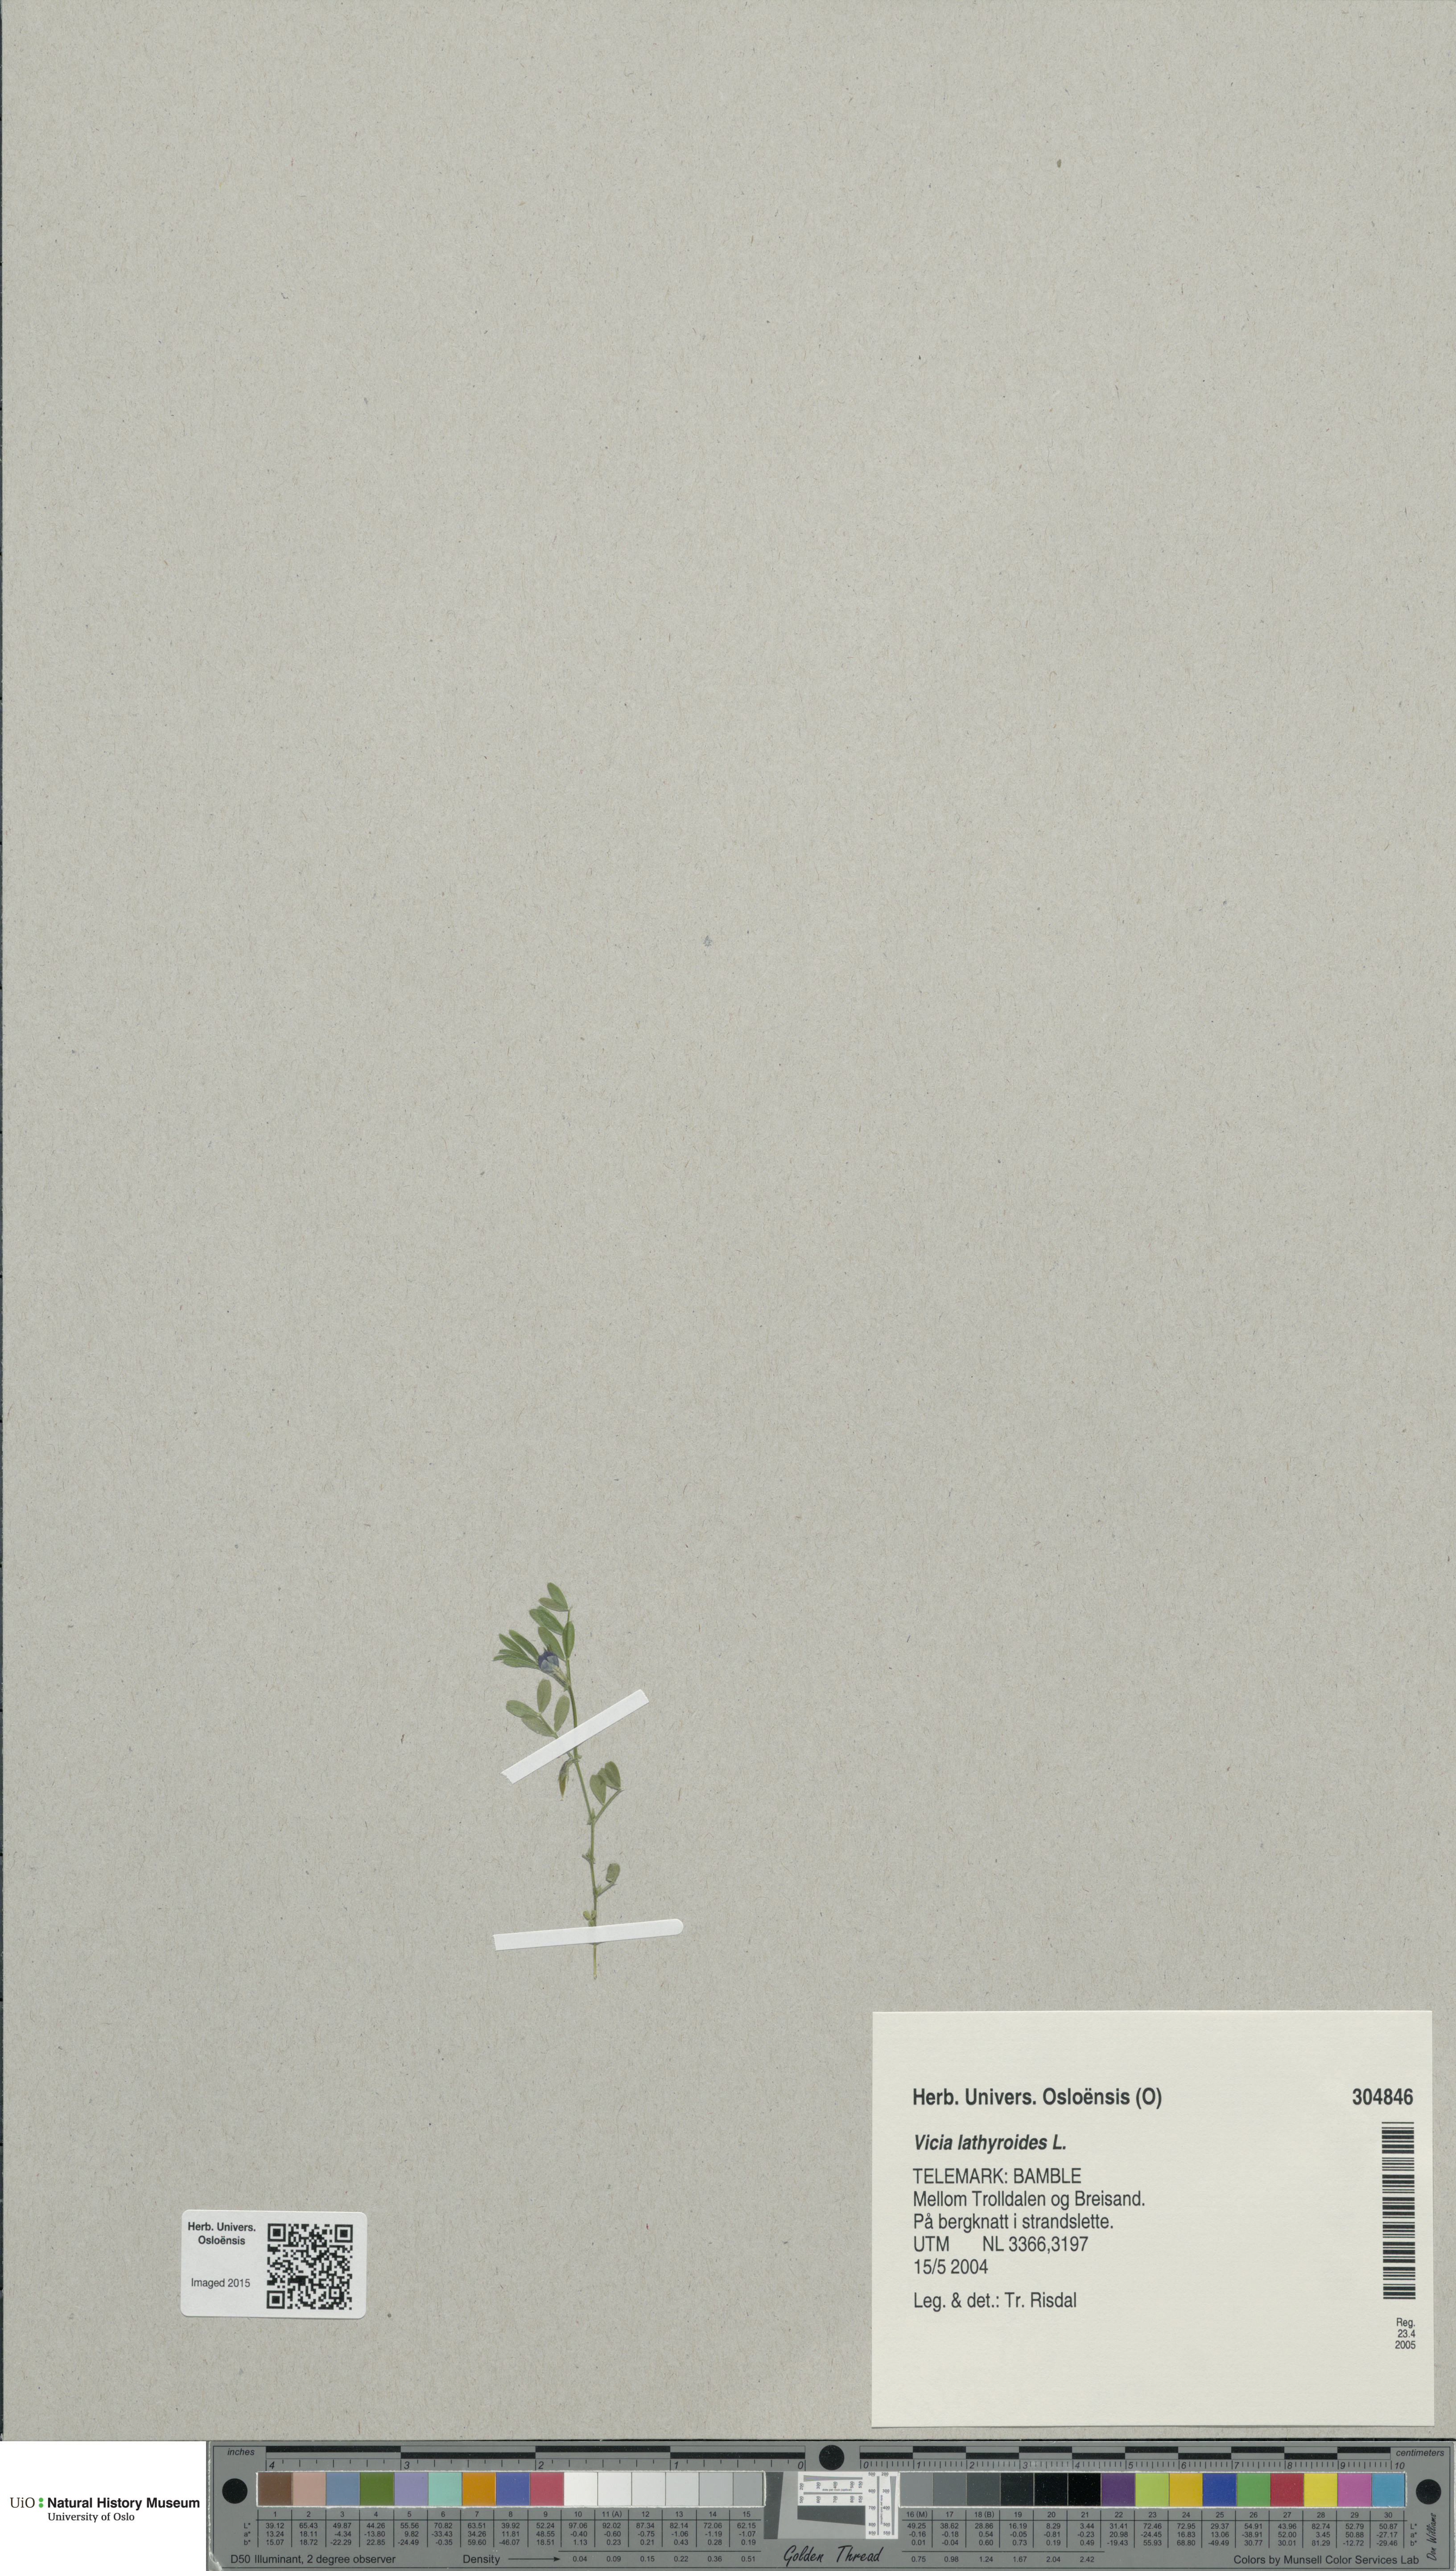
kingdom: Plantae
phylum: Tracheophyta
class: Magnoliopsida
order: Fabales
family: Fabaceae
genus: Vicia
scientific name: Vicia lathyroides
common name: Spring vetch
